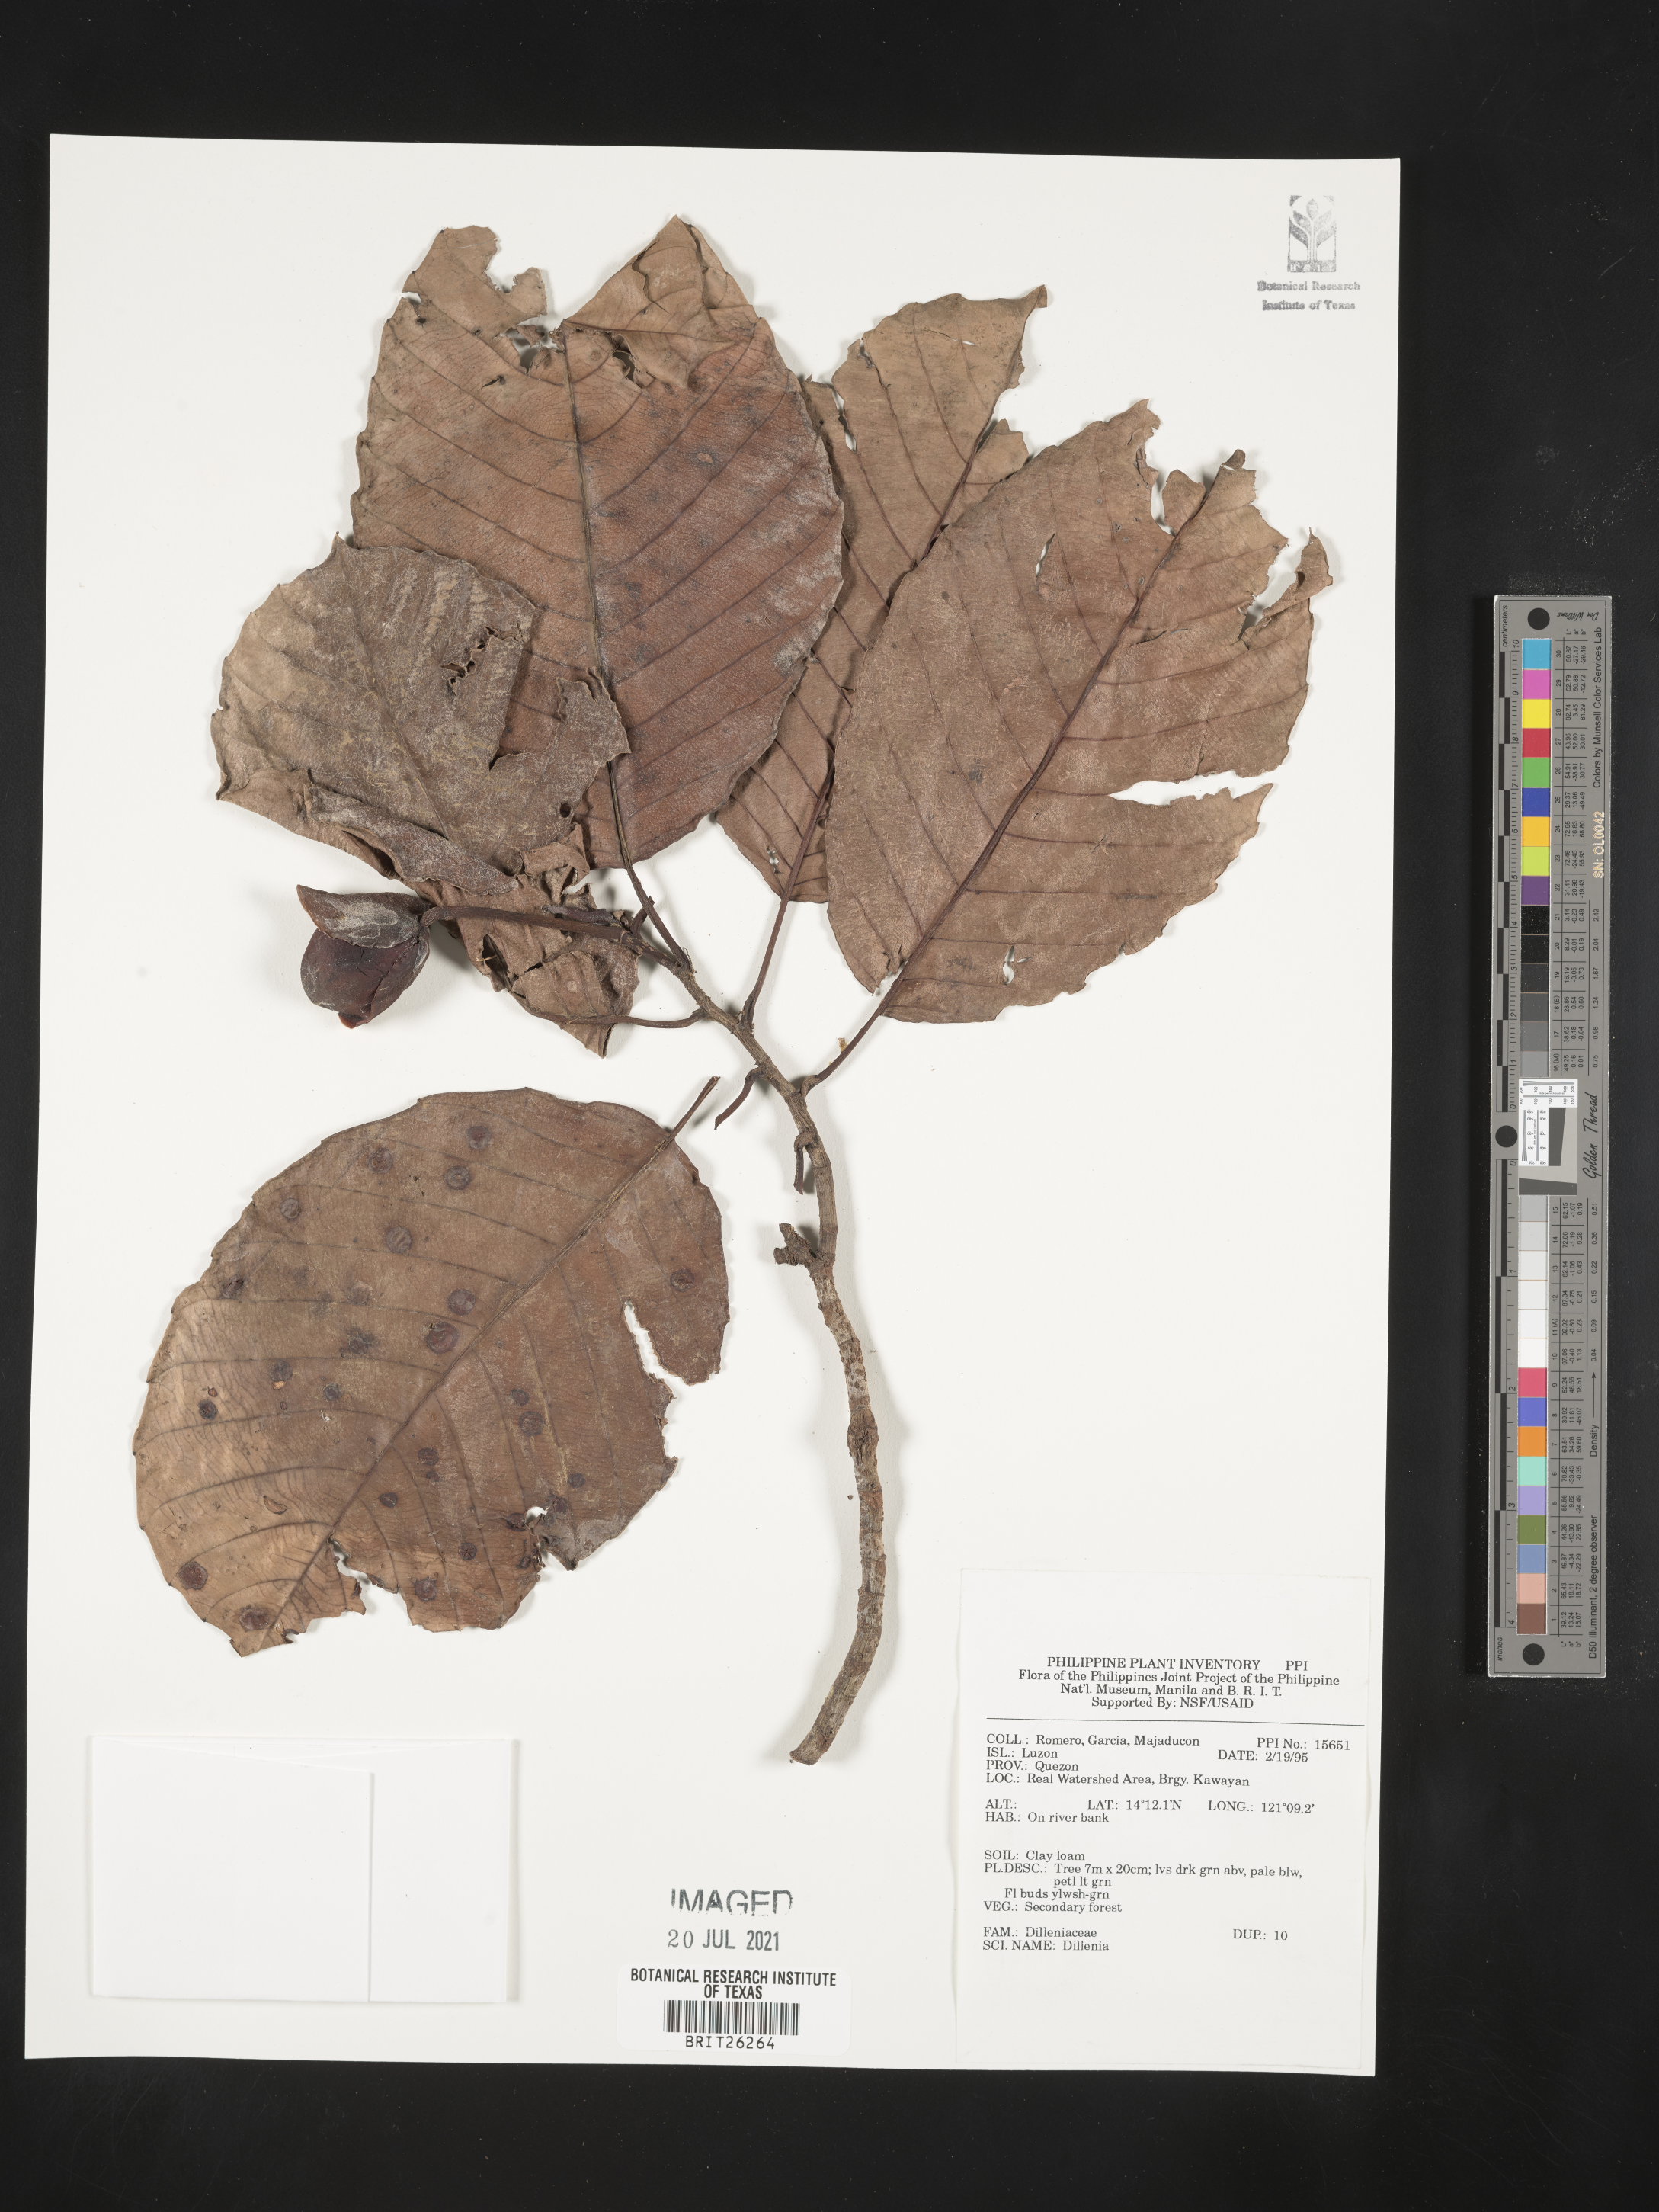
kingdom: Plantae
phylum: Tracheophyta
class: Magnoliopsida
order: Dilleniales
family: Dilleniaceae
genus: Dillenia
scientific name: Dillenia
